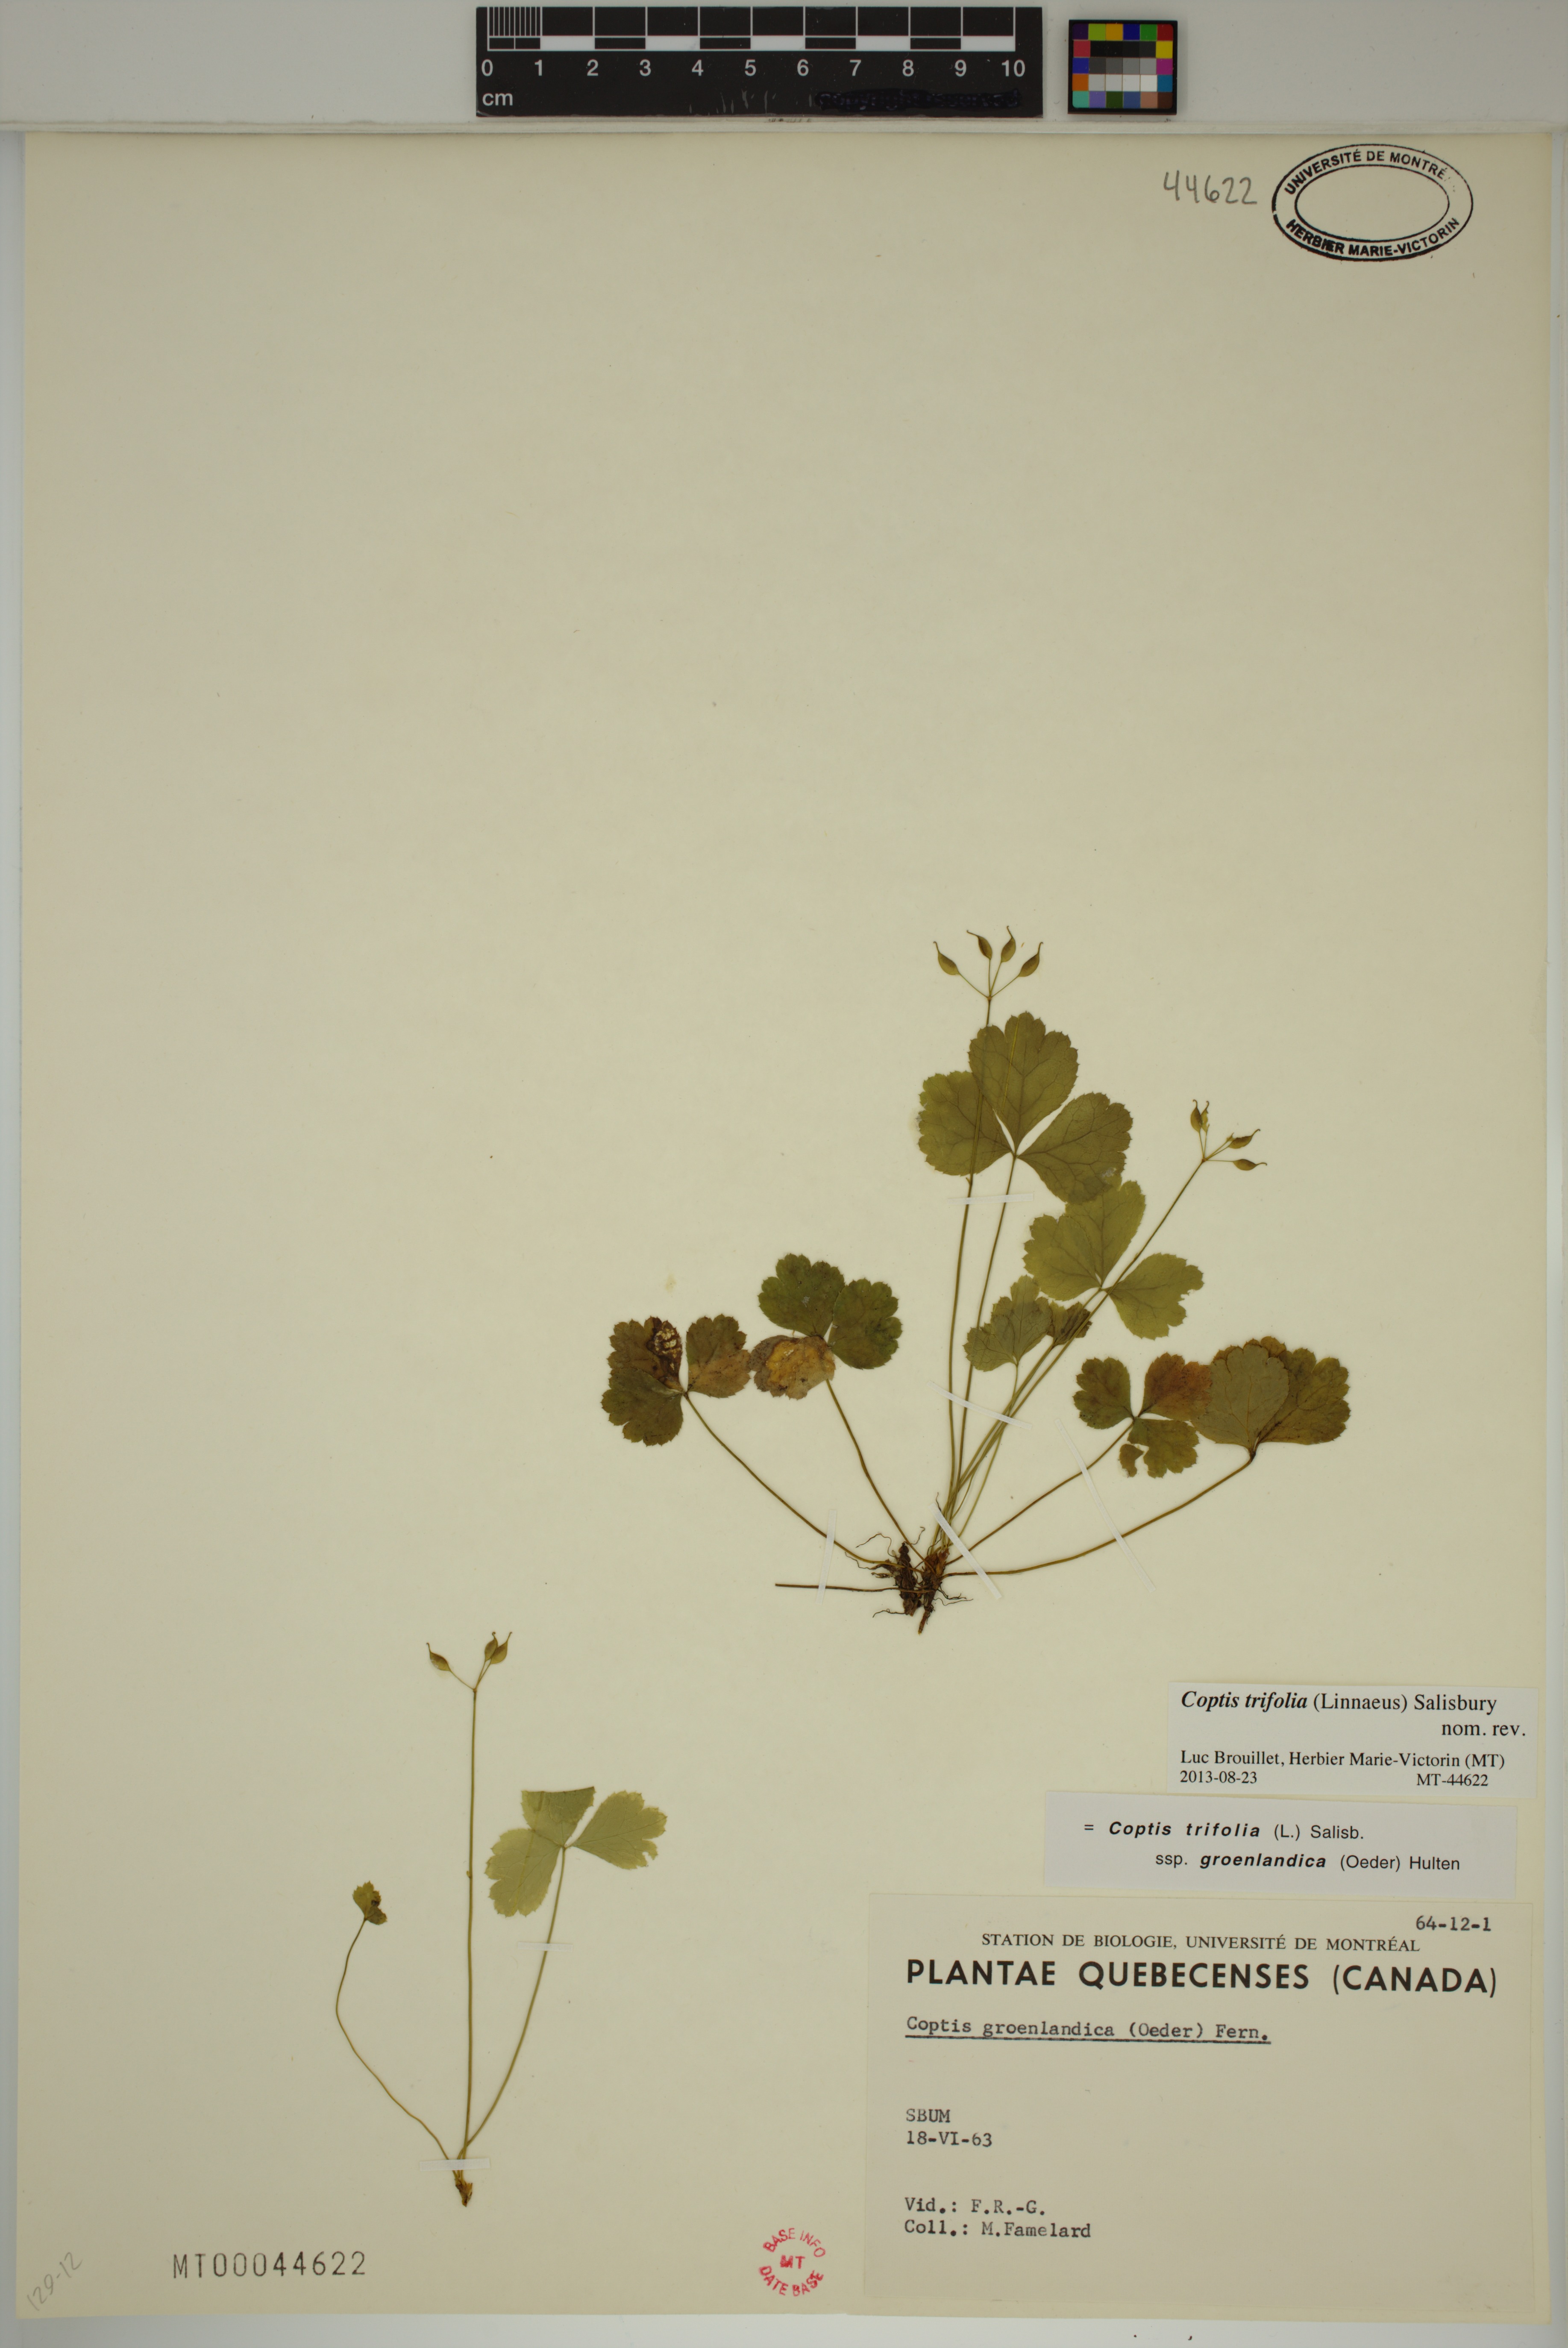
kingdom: Plantae
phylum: Tracheophyta
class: Magnoliopsida
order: Ranunculales
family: Ranunculaceae
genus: Coptis
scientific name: Coptis trifolia
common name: Canker-root
